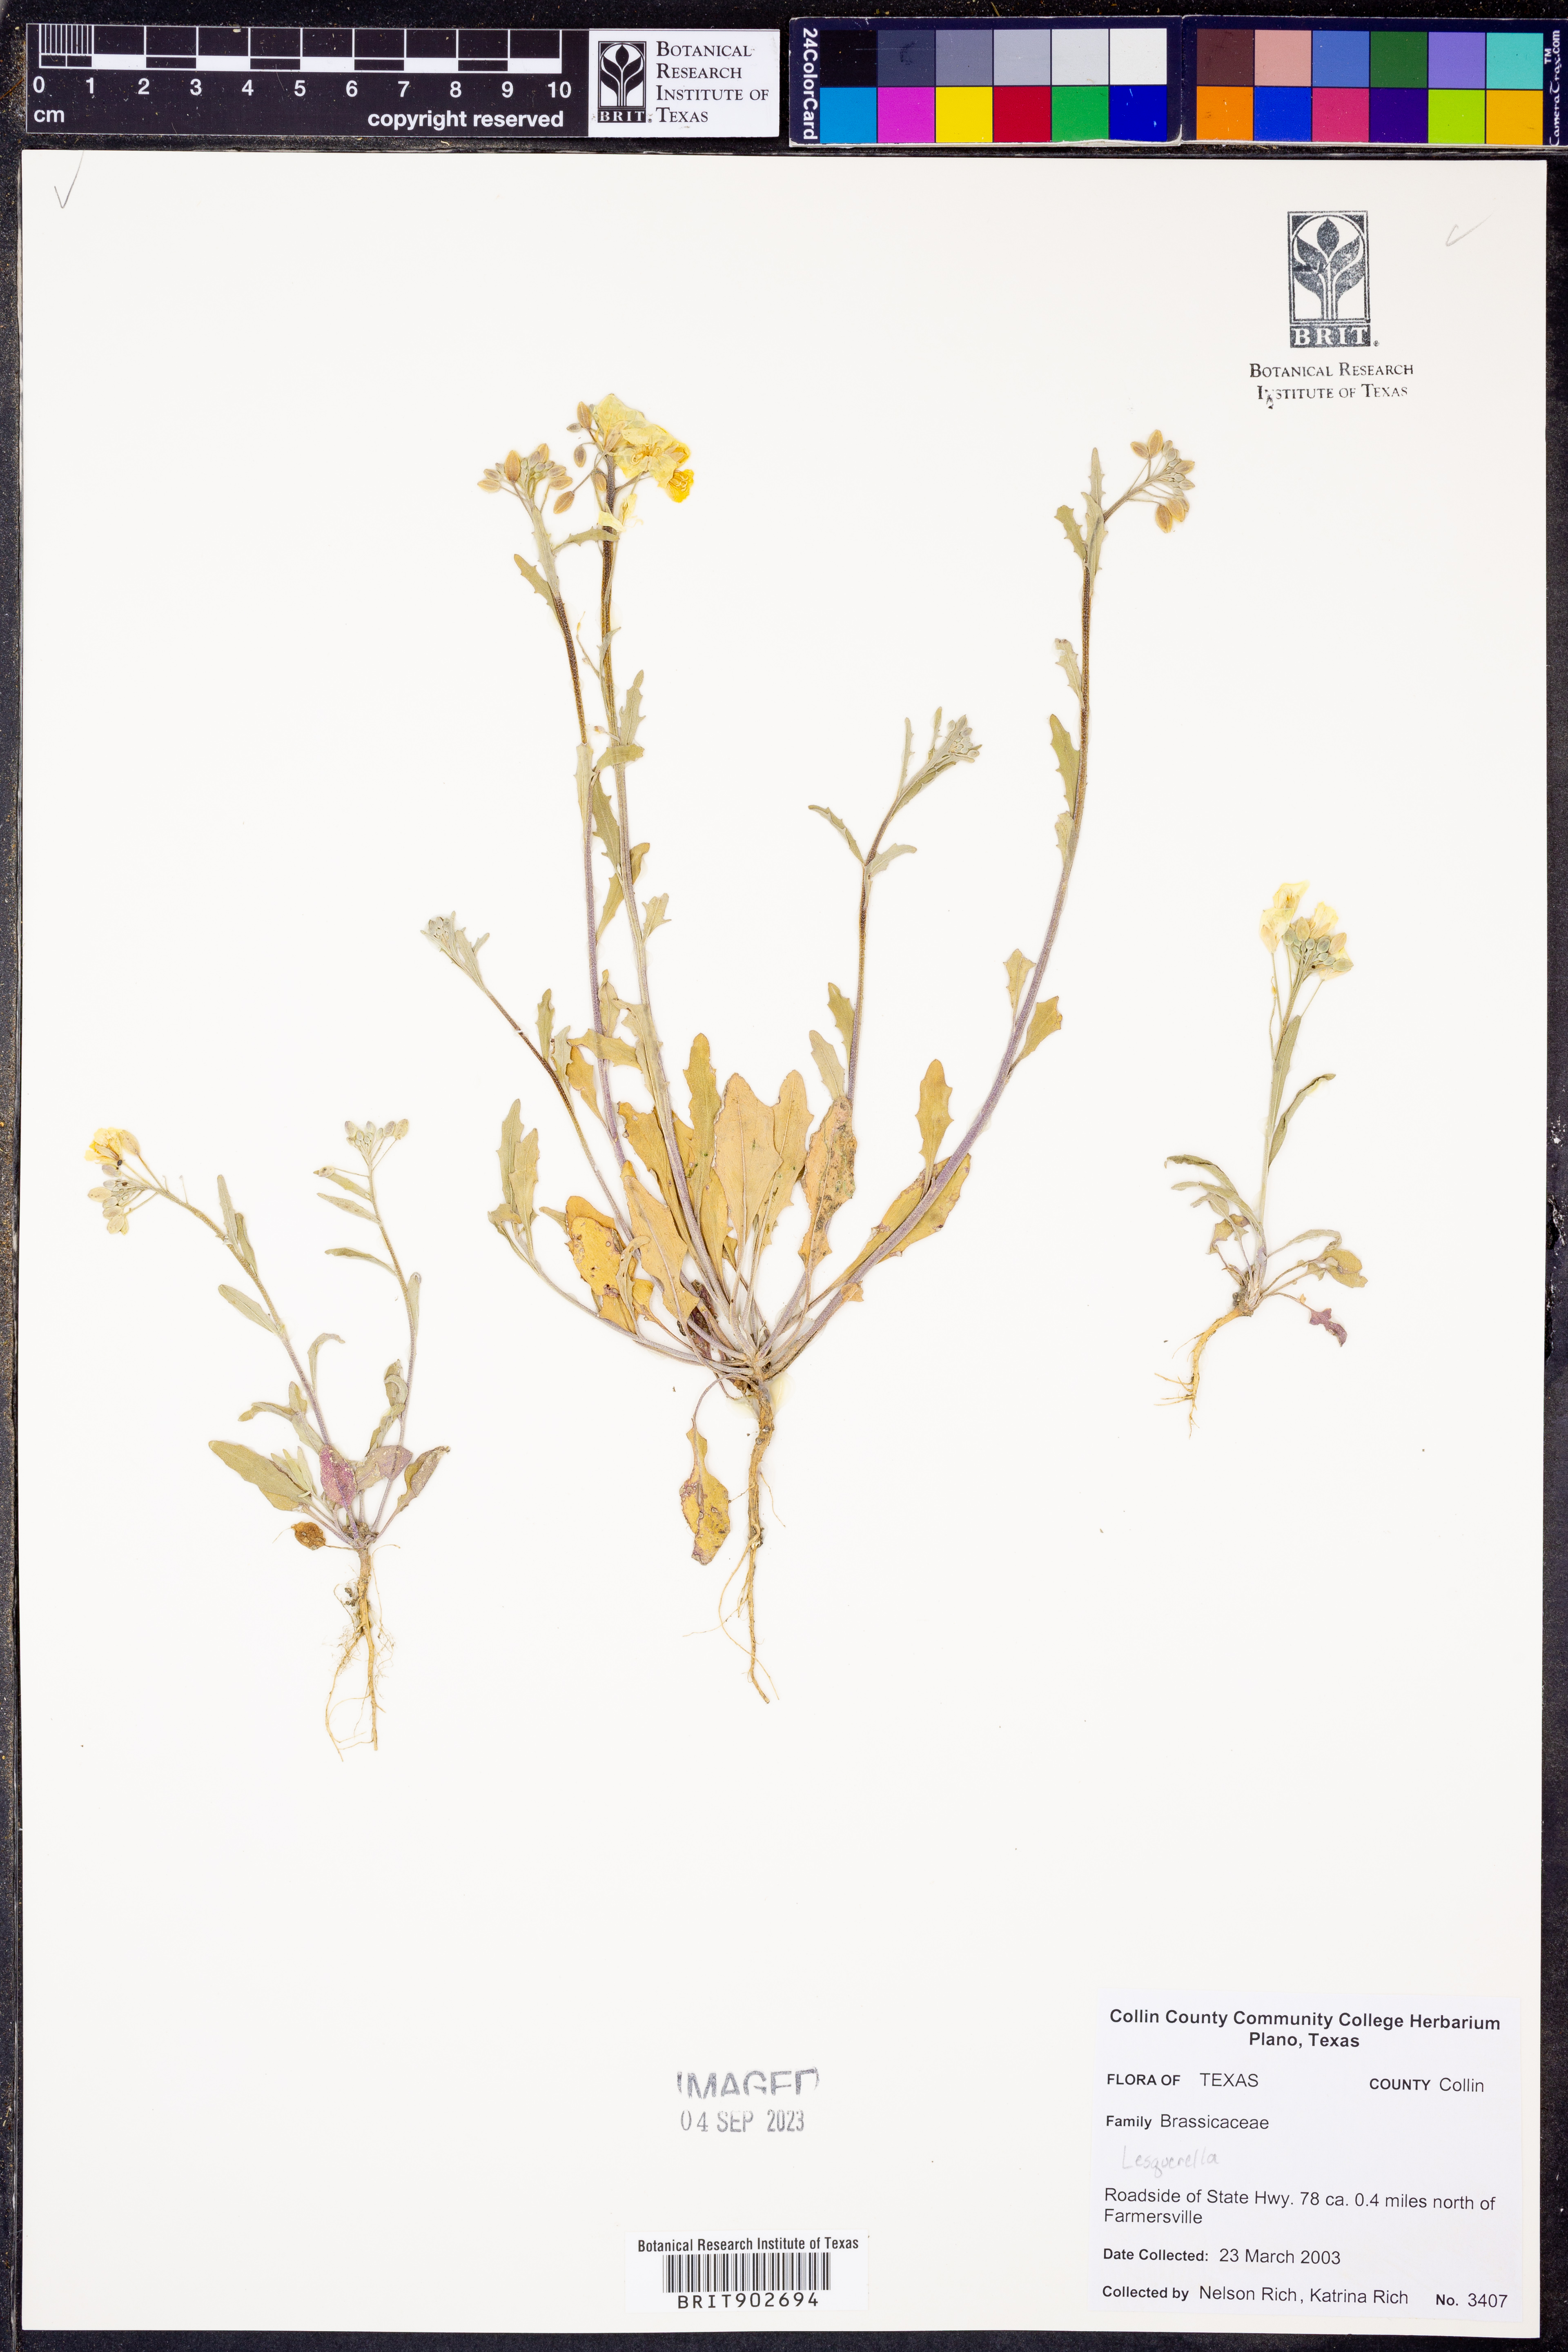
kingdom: Chromista
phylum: Cercozoa
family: Psammonobiotidae
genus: Lesquerella
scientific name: Lesquerella
